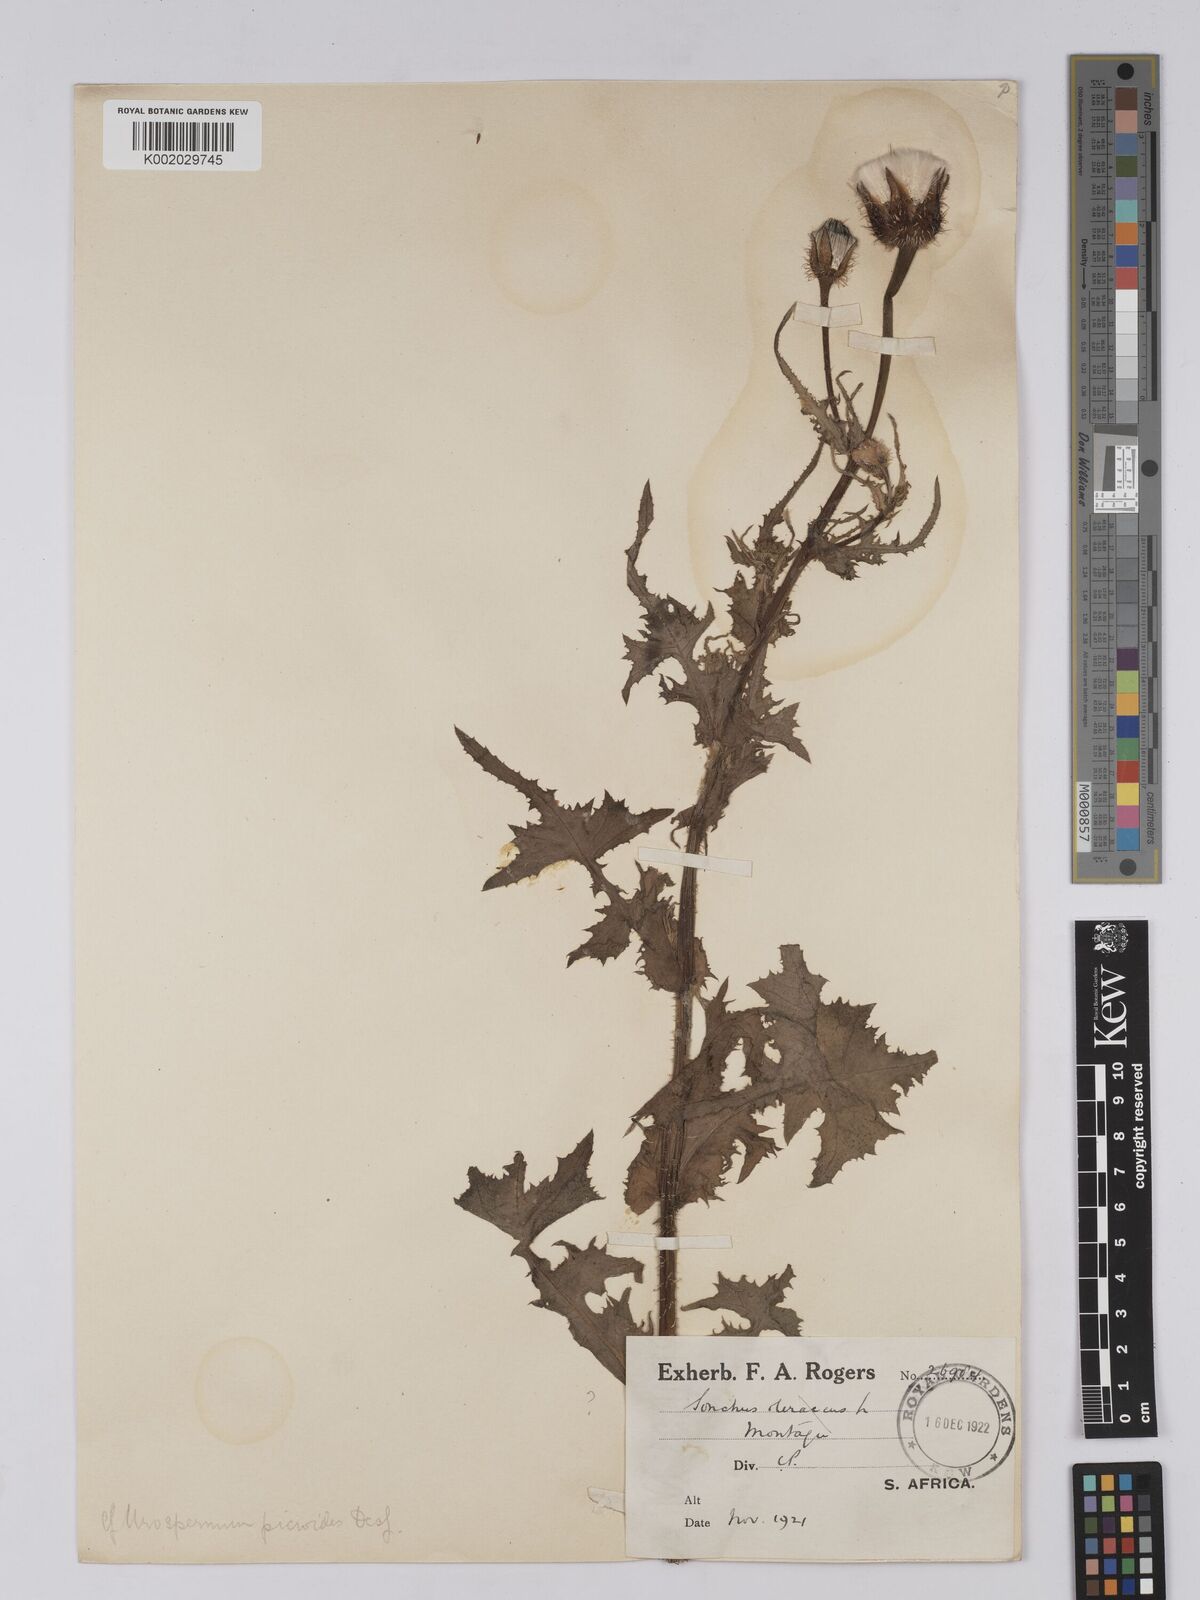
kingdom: Plantae
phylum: Tracheophyta
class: Magnoliopsida
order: Asterales
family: Asteraceae
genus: Urospermum
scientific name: Urospermum picroides
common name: False hawkbit
